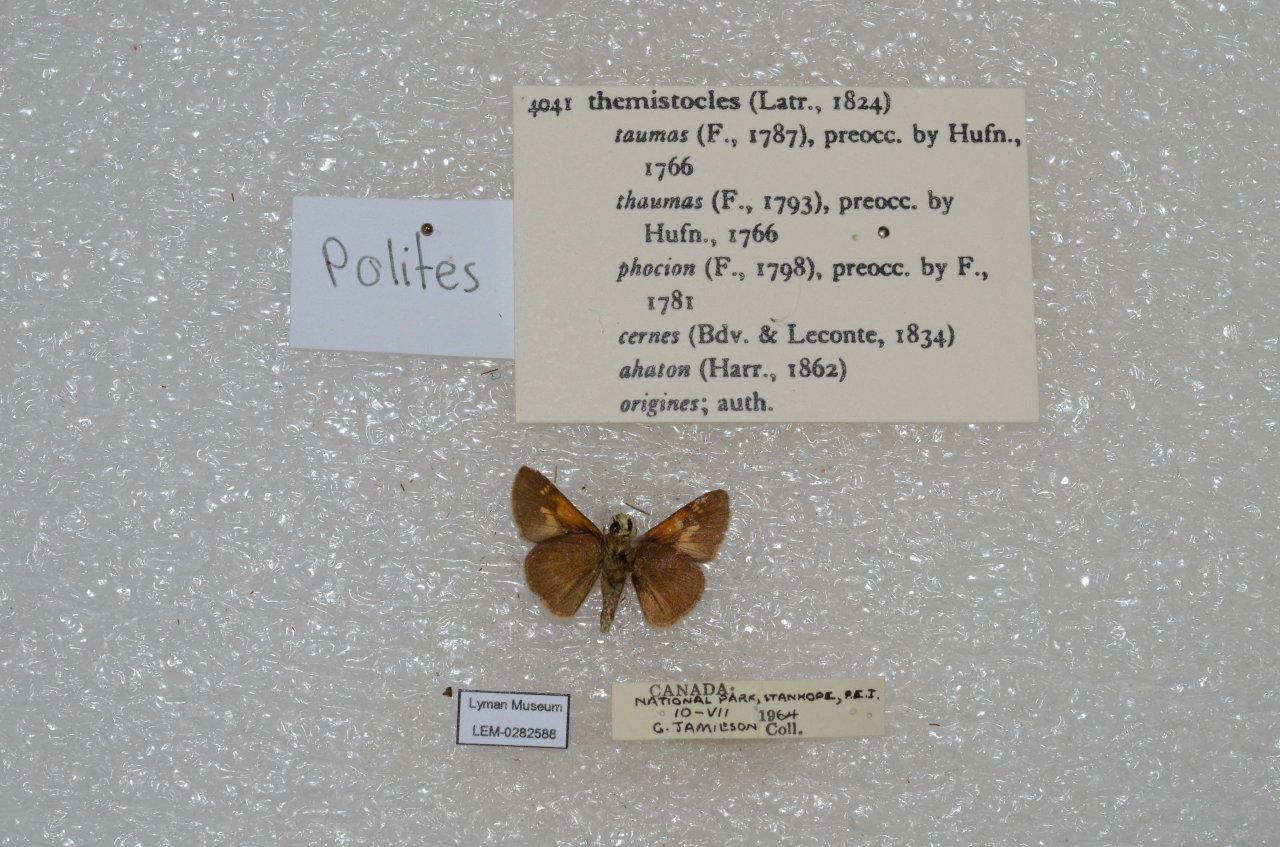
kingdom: Animalia
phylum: Arthropoda
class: Insecta
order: Lepidoptera
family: Hesperiidae
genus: Polites
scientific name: Polites themistocles
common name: Tawny-edged Skipper
